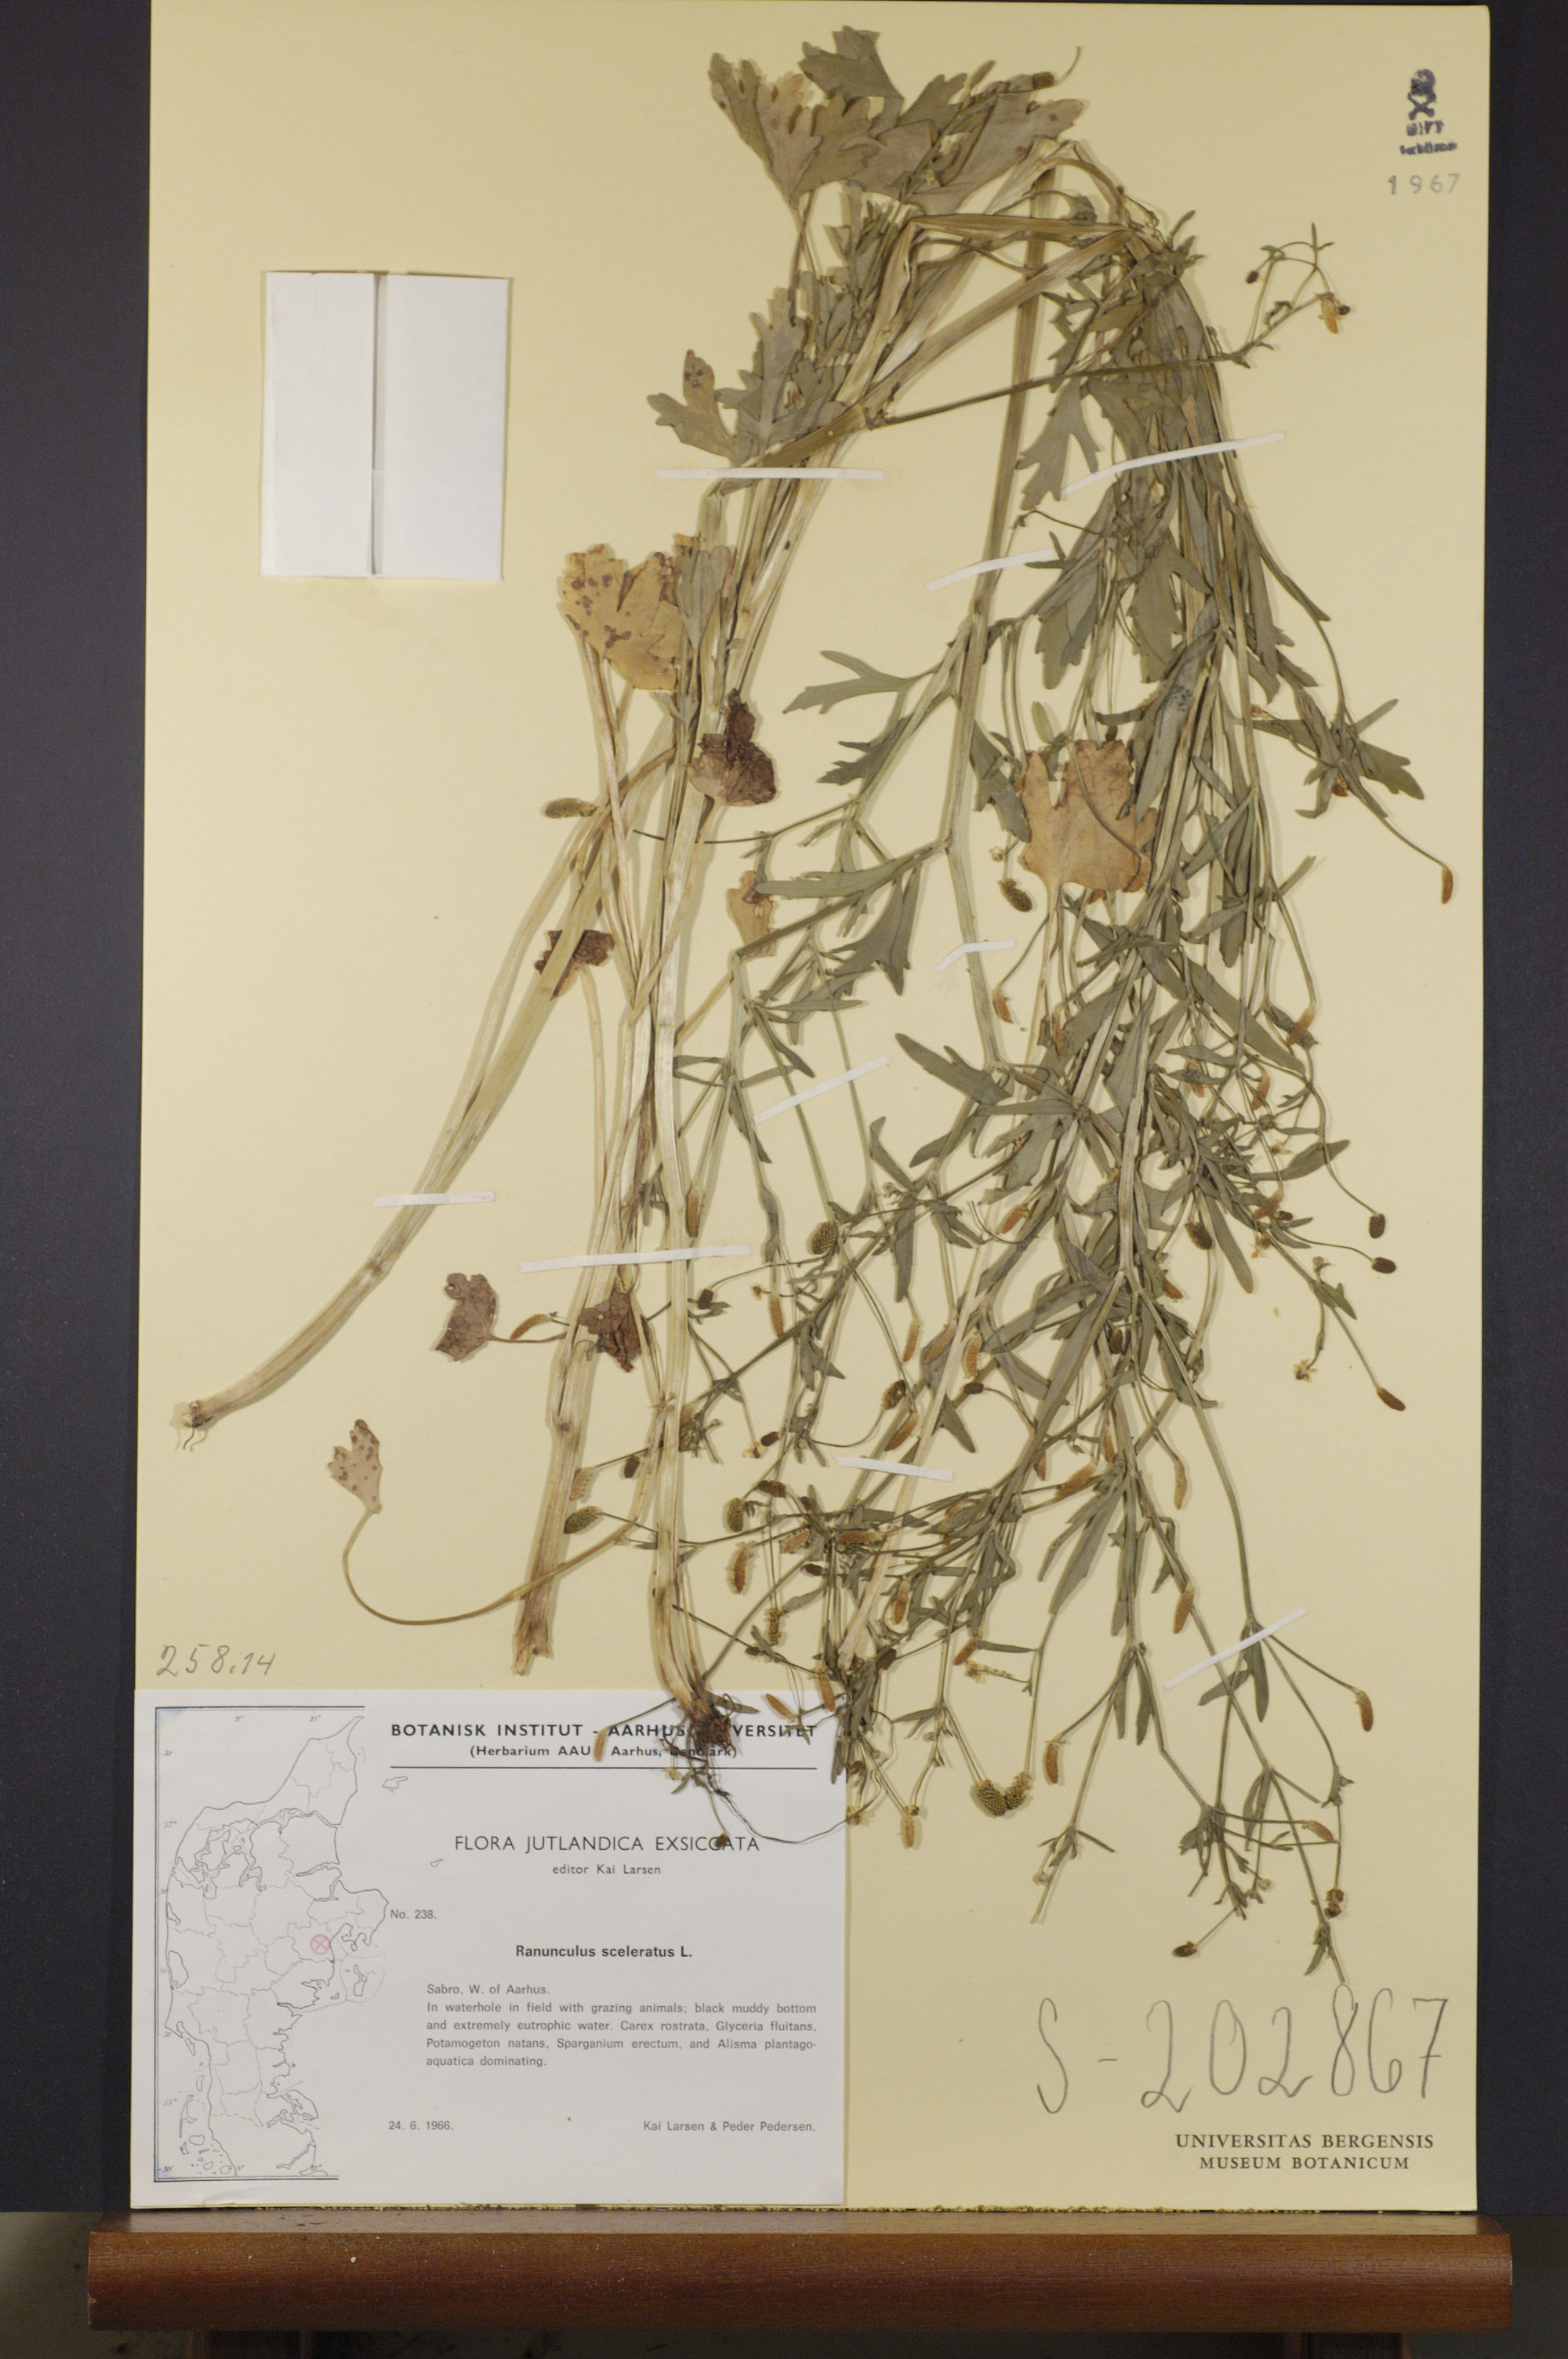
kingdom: Plantae
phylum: Tracheophyta
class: Magnoliopsida
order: Ranunculales
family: Ranunculaceae
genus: Ranunculus
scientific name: Ranunculus sceleratus
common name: Celery-leaved buttercup
